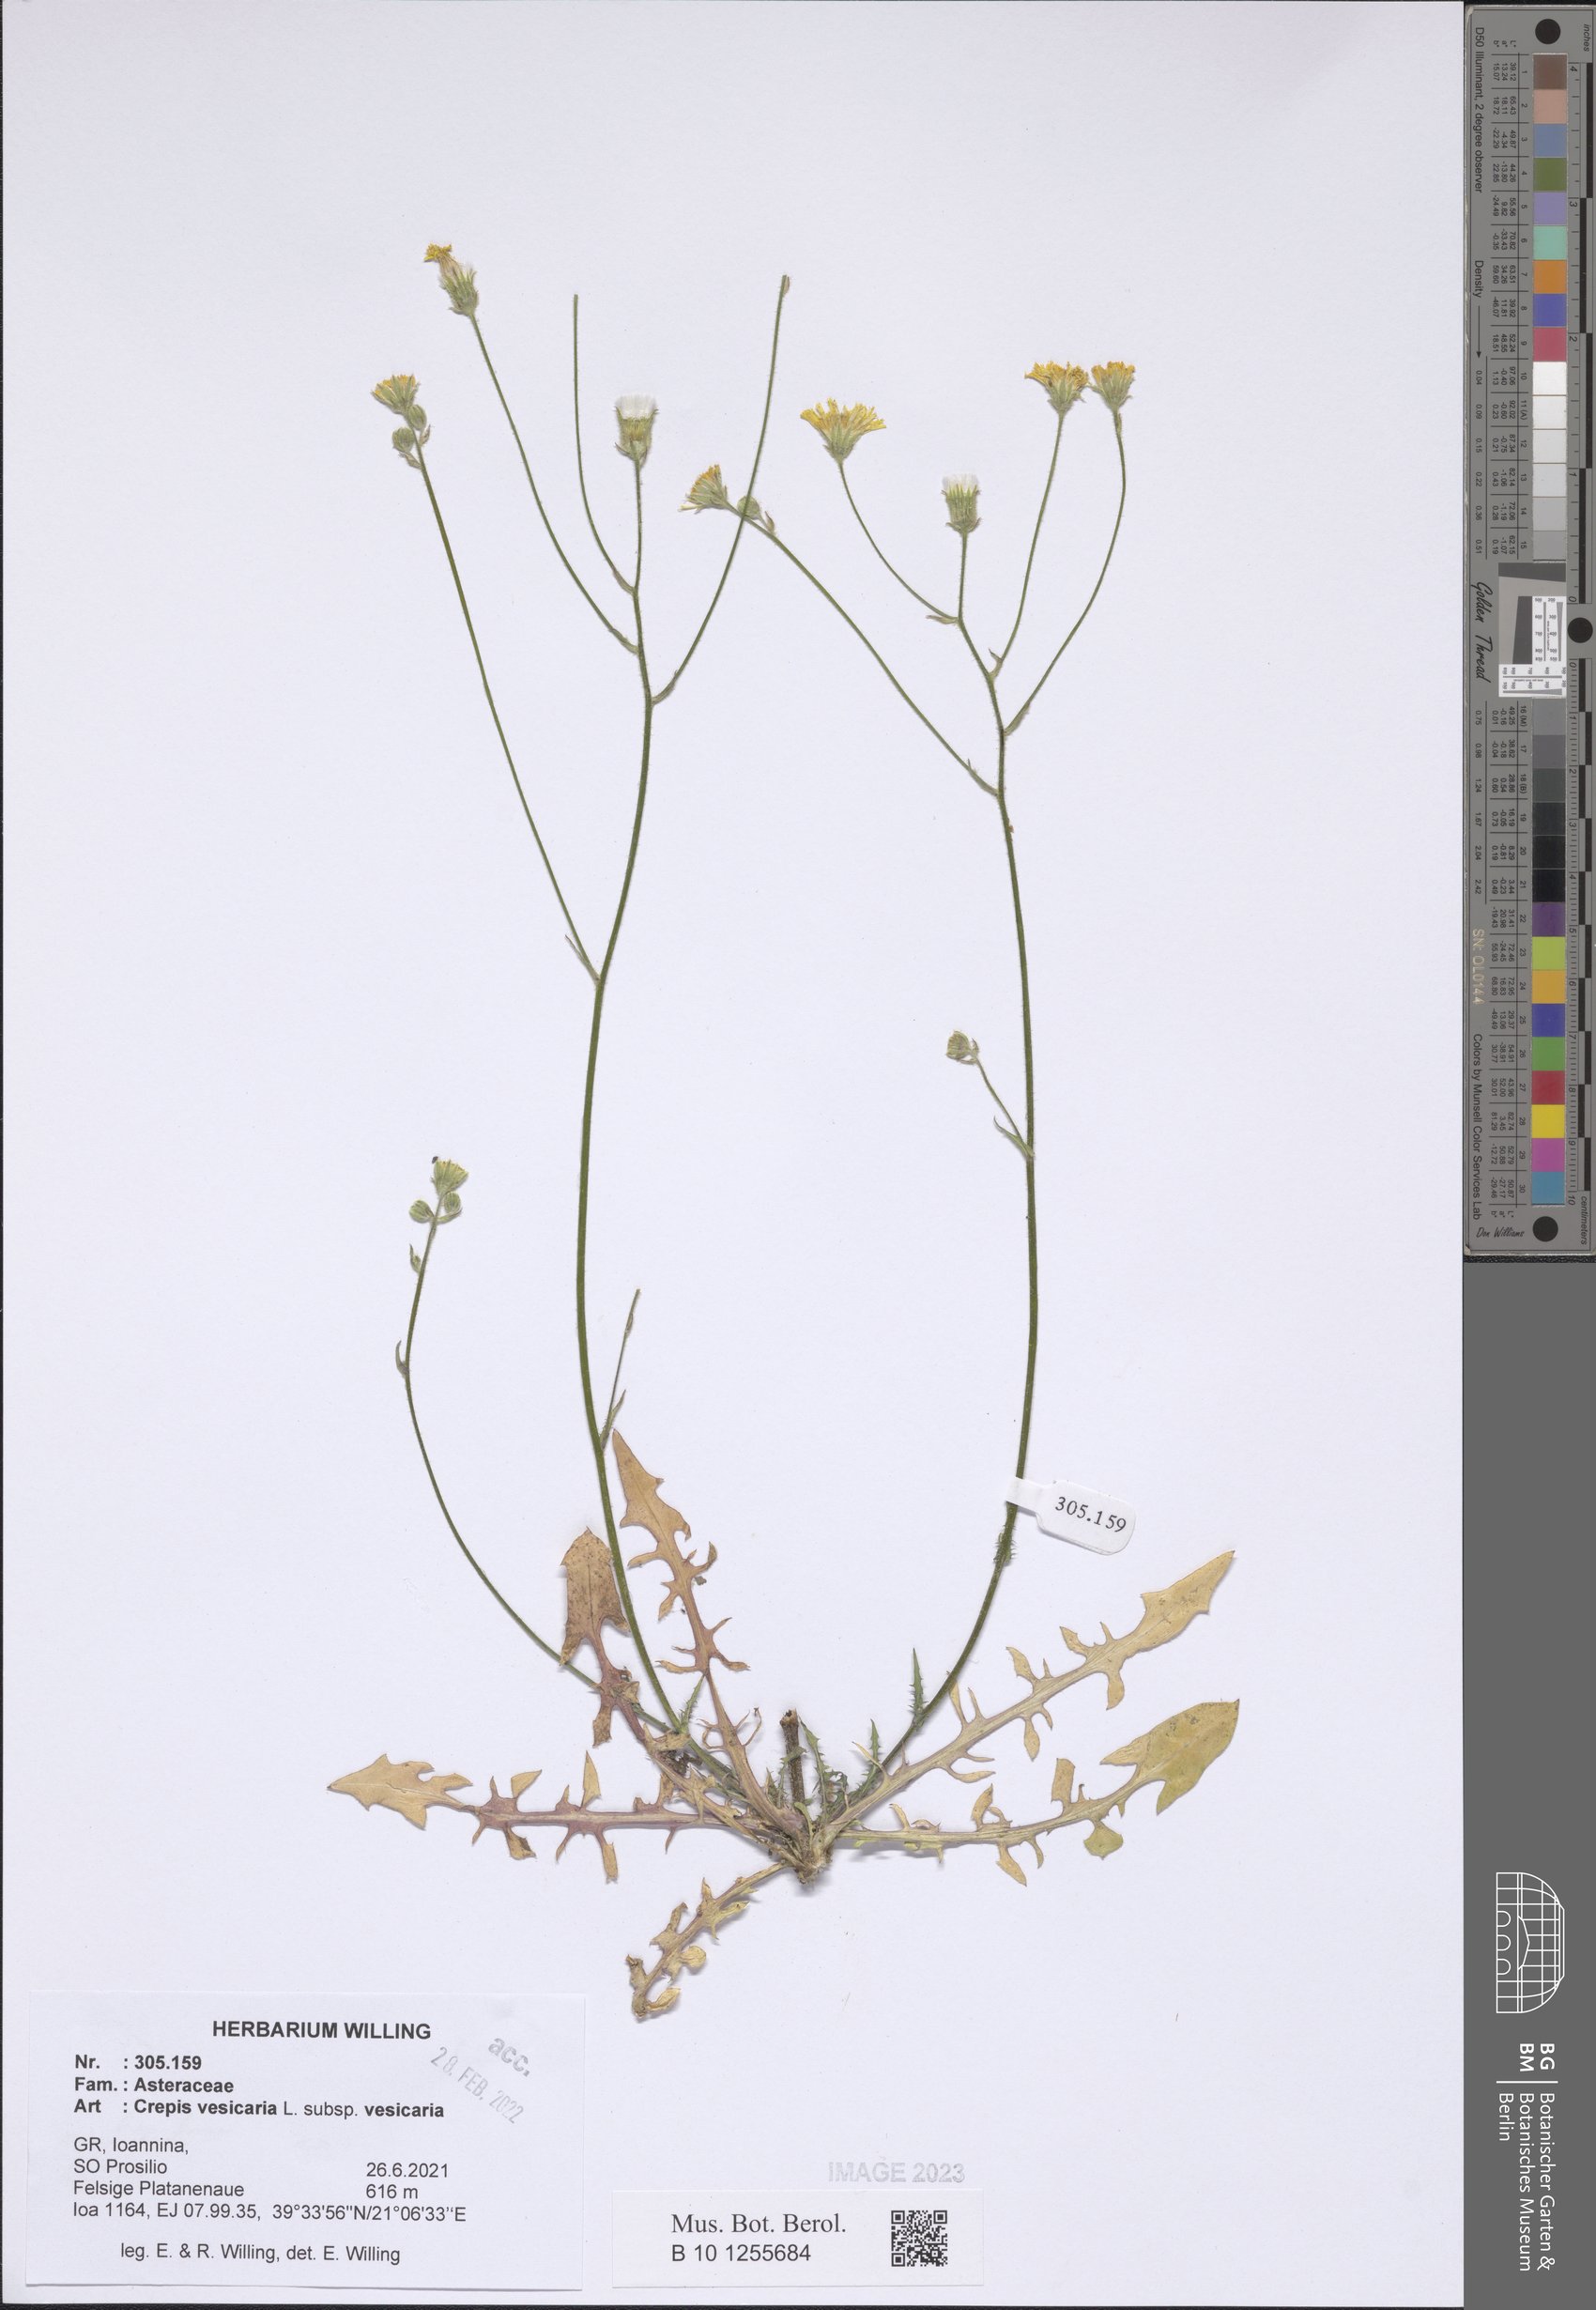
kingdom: Plantae
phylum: Tracheophyta
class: Magnoliopsida
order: Asterales
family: Asteraceae
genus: Crepis
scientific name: Crepis vesicaria
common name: Beaked hawksbeard
